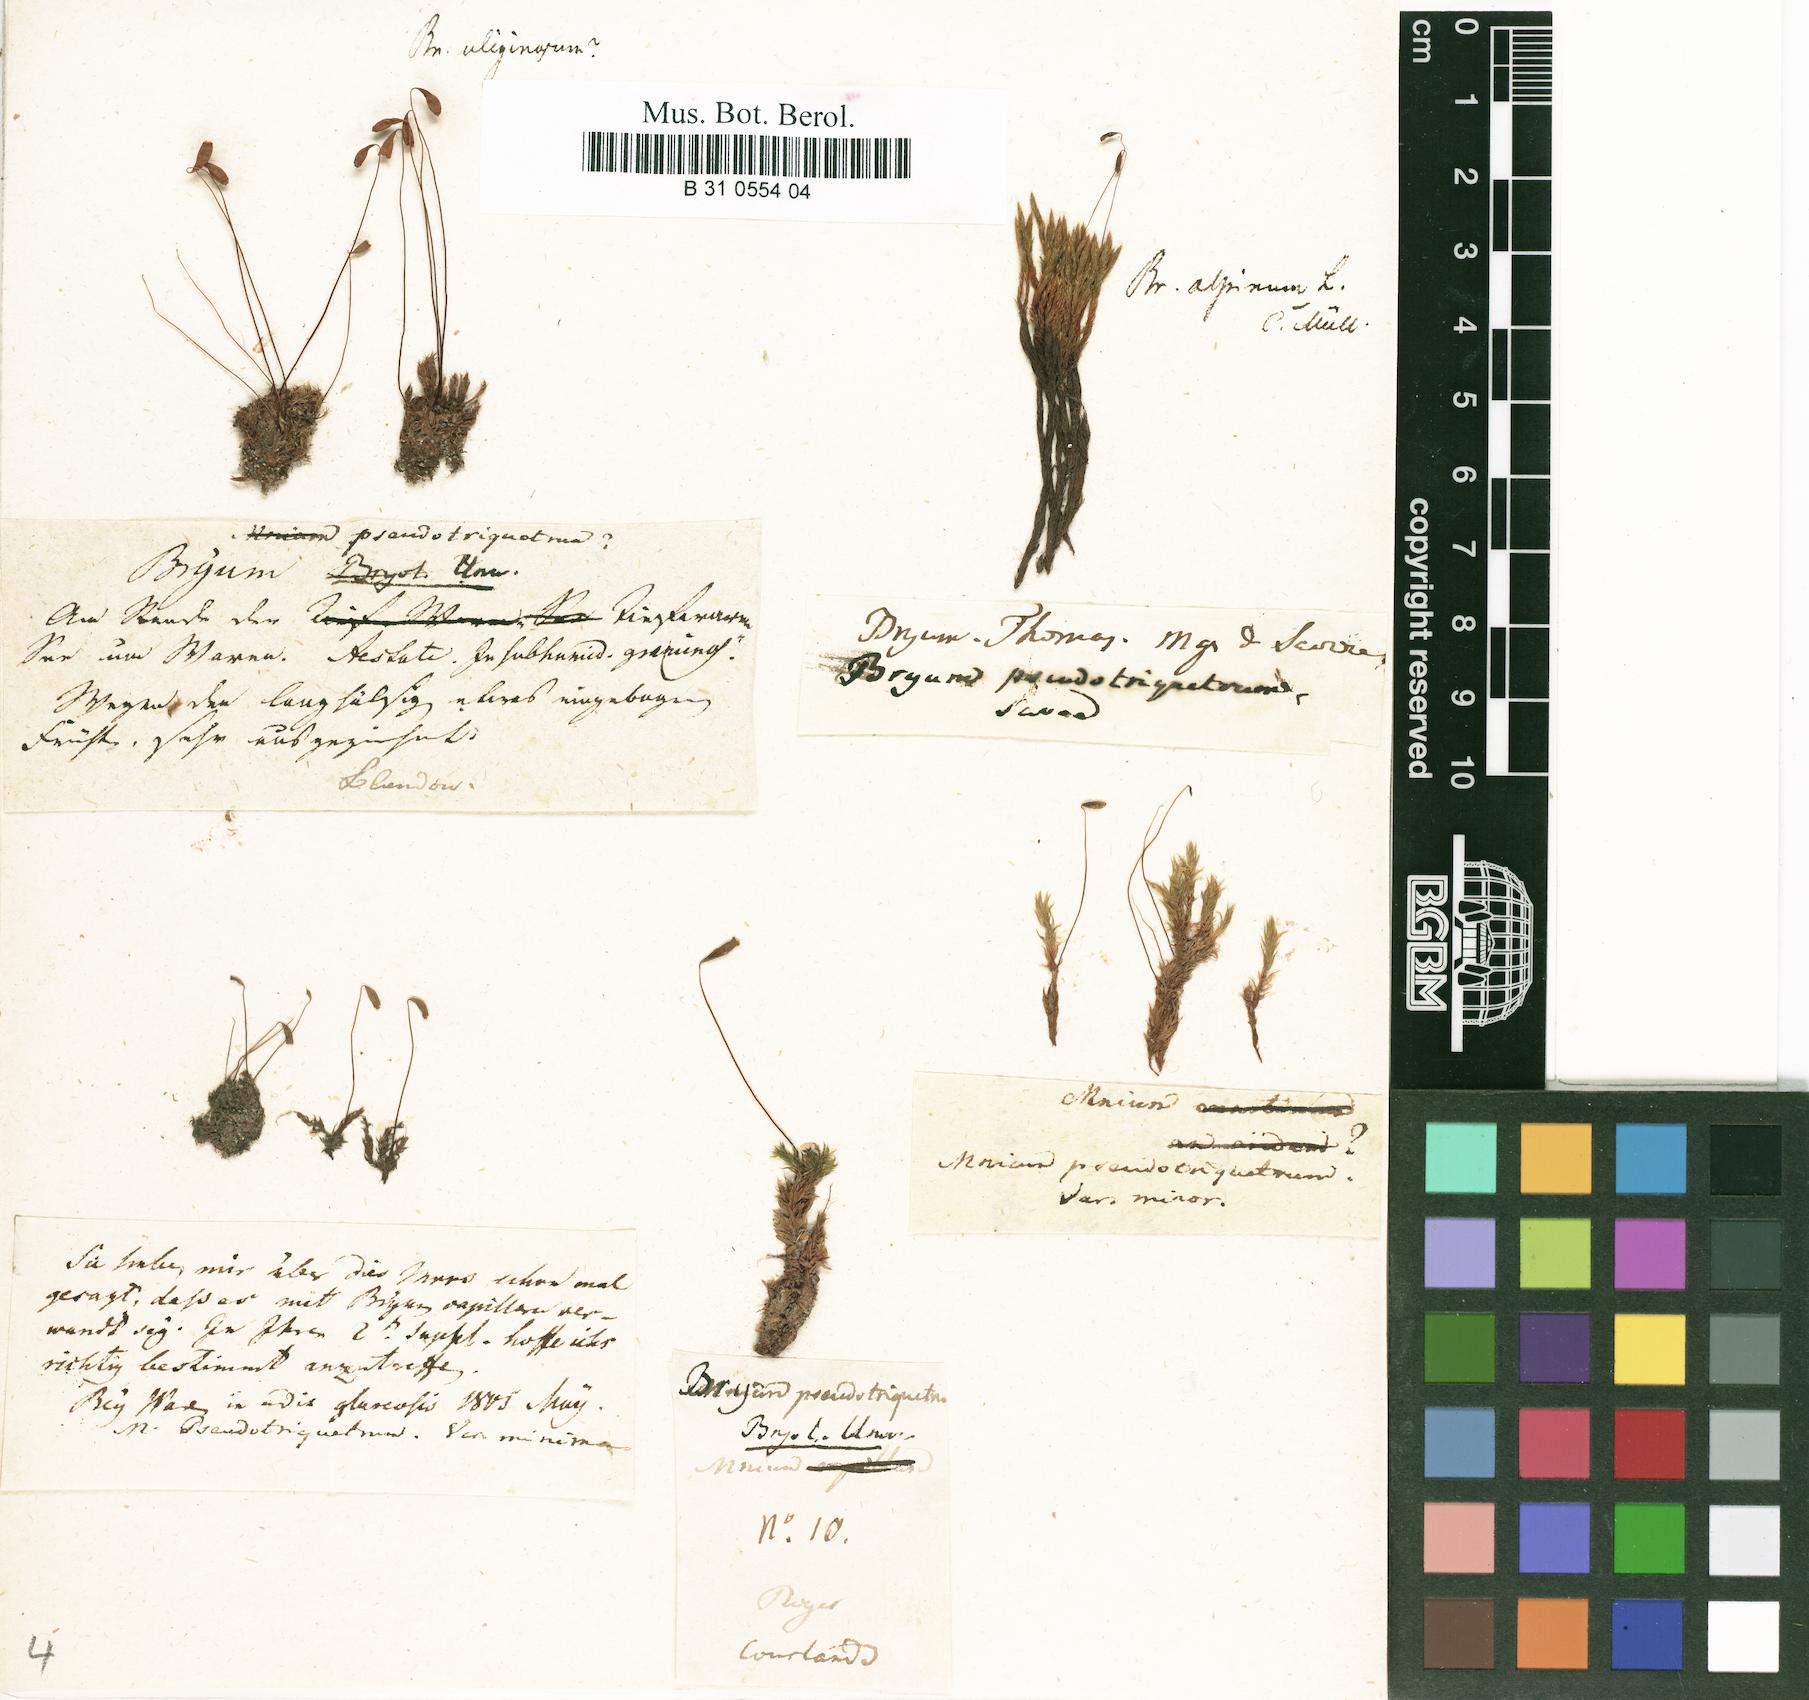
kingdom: Plantae
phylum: Bryophyta
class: Bryopsida
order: Bryales
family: Bryaceae
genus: Ptychostomum
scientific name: Ptychostomum pseudotriquetrum
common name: Long-leaved thread moss
